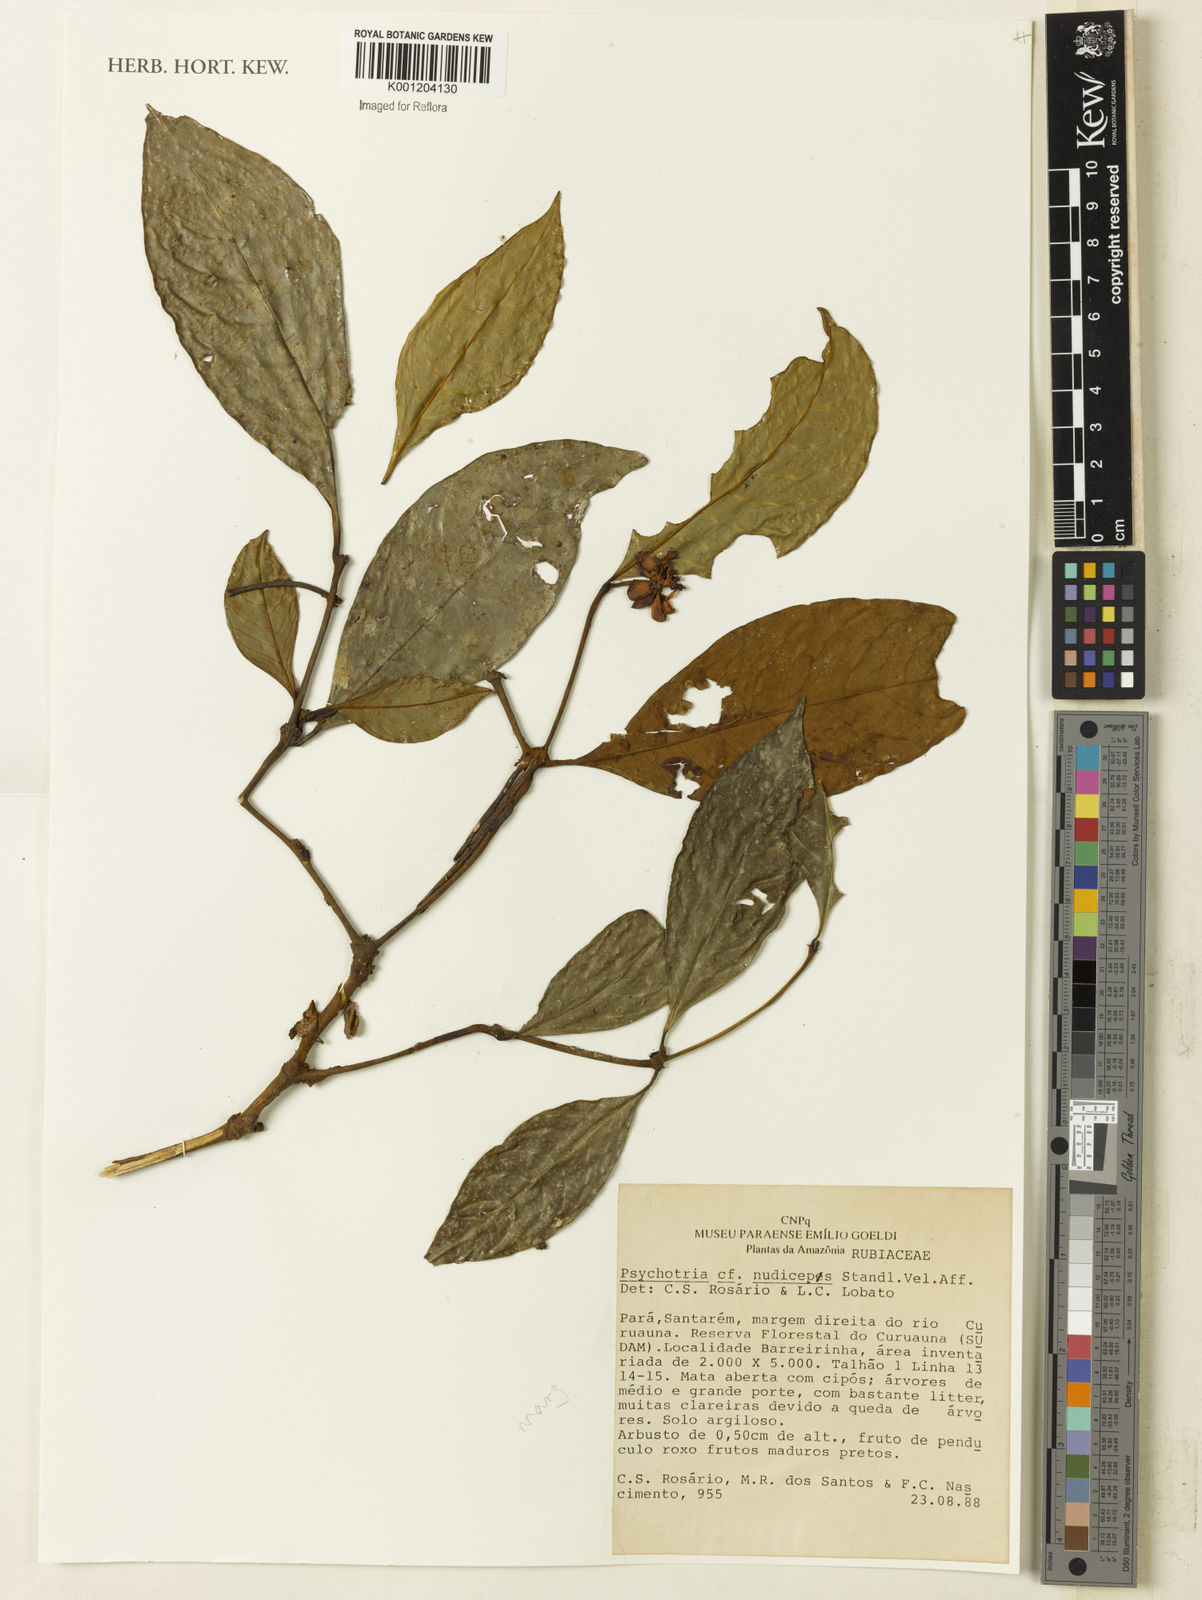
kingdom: Plantae
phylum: Tracheophyta
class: Magnoliopsida
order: Gentianales
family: Rubiaceae
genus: Eumachia
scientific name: Eumachia nana
